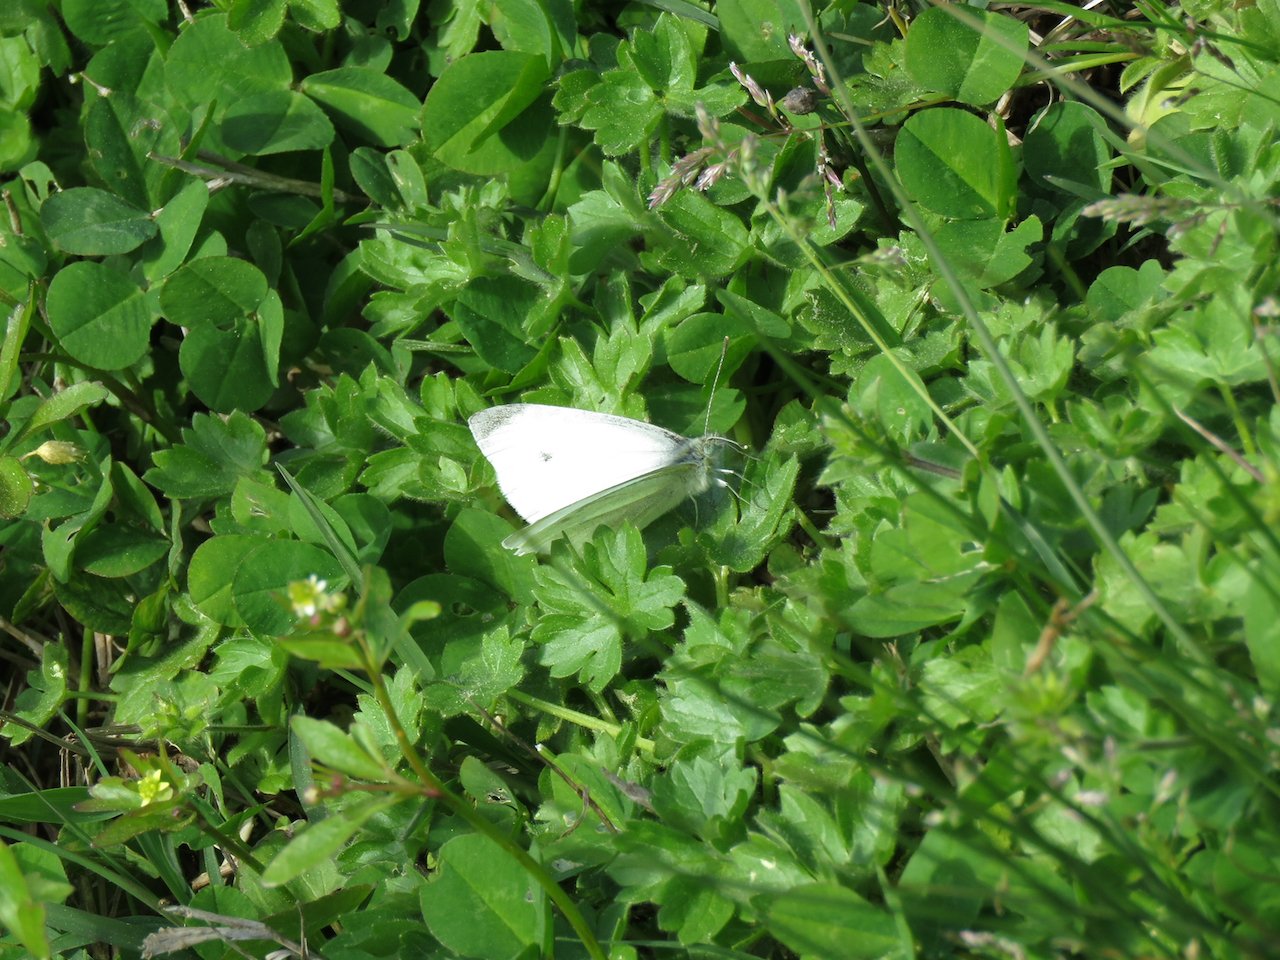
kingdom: Animalia
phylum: Arthropoda
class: Insecta
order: Lepidoptera
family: Pieridae
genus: Pieris
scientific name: Pieris rapae
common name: Cabbage White
